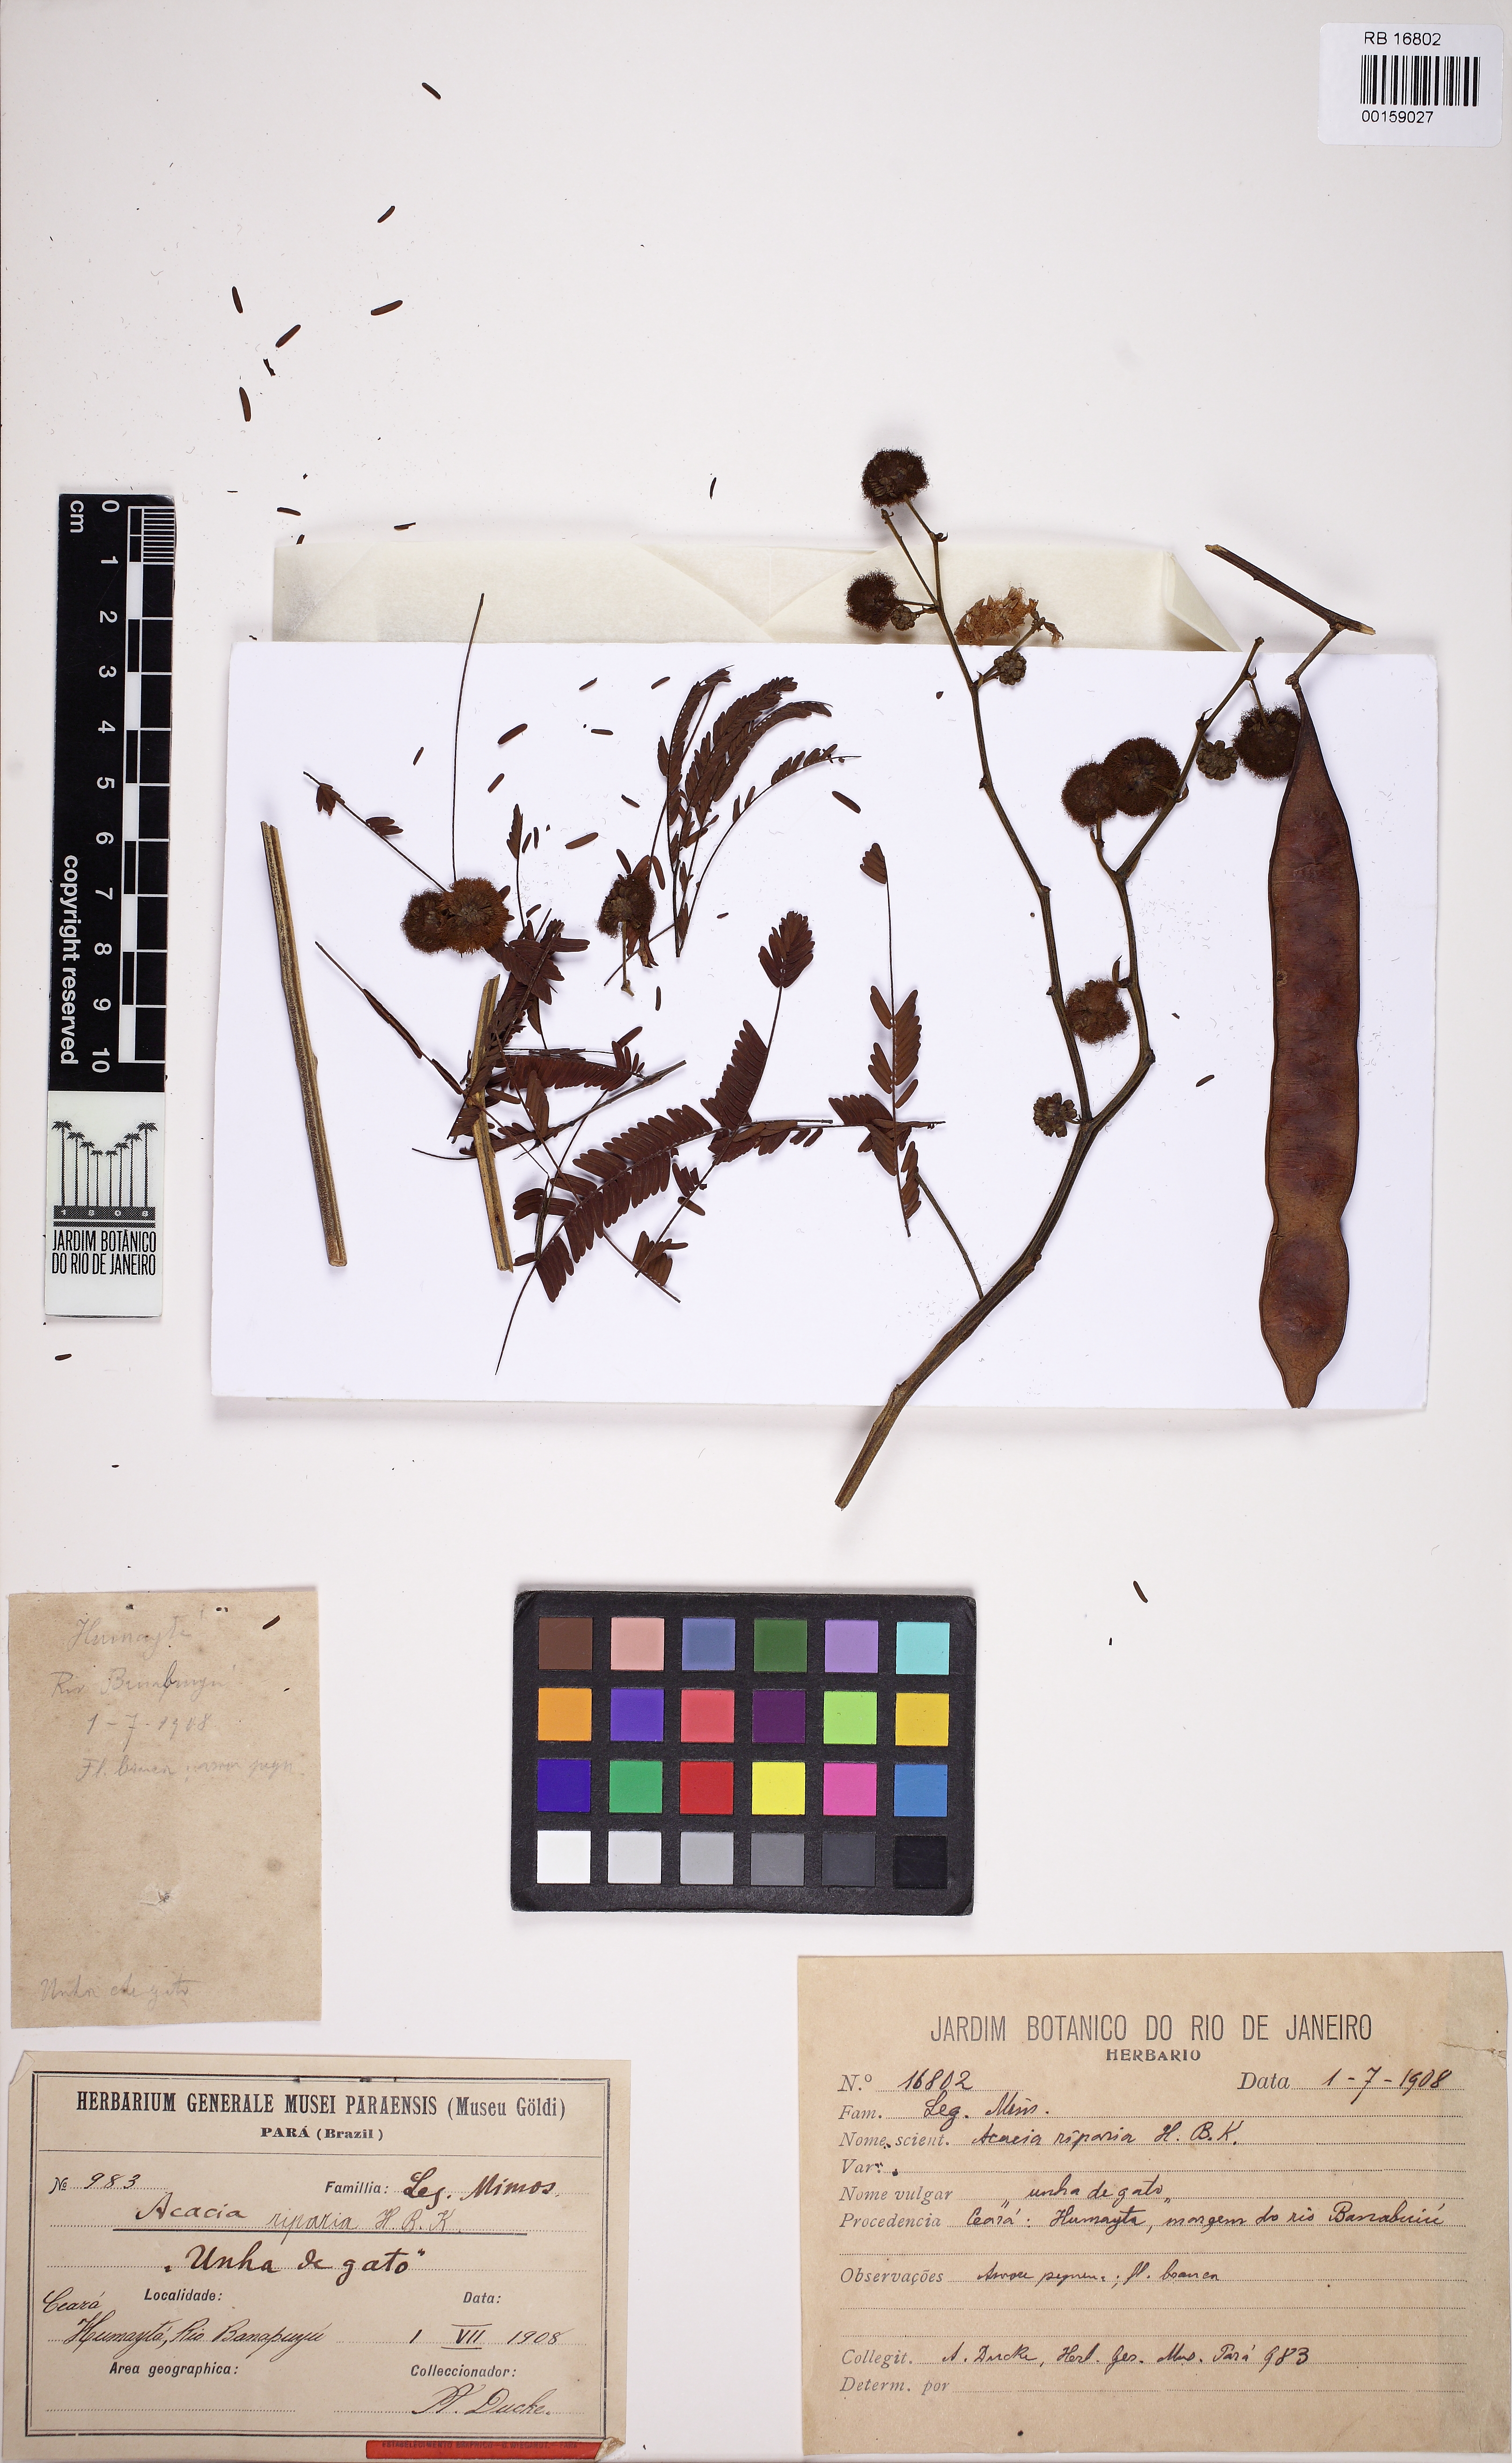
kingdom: Plantae
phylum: Tracheophyta
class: Magnoliopsida
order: Fabales
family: Fabaceae
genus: Senegalia
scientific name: Senegalia riparia
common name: Catch-and-keep
